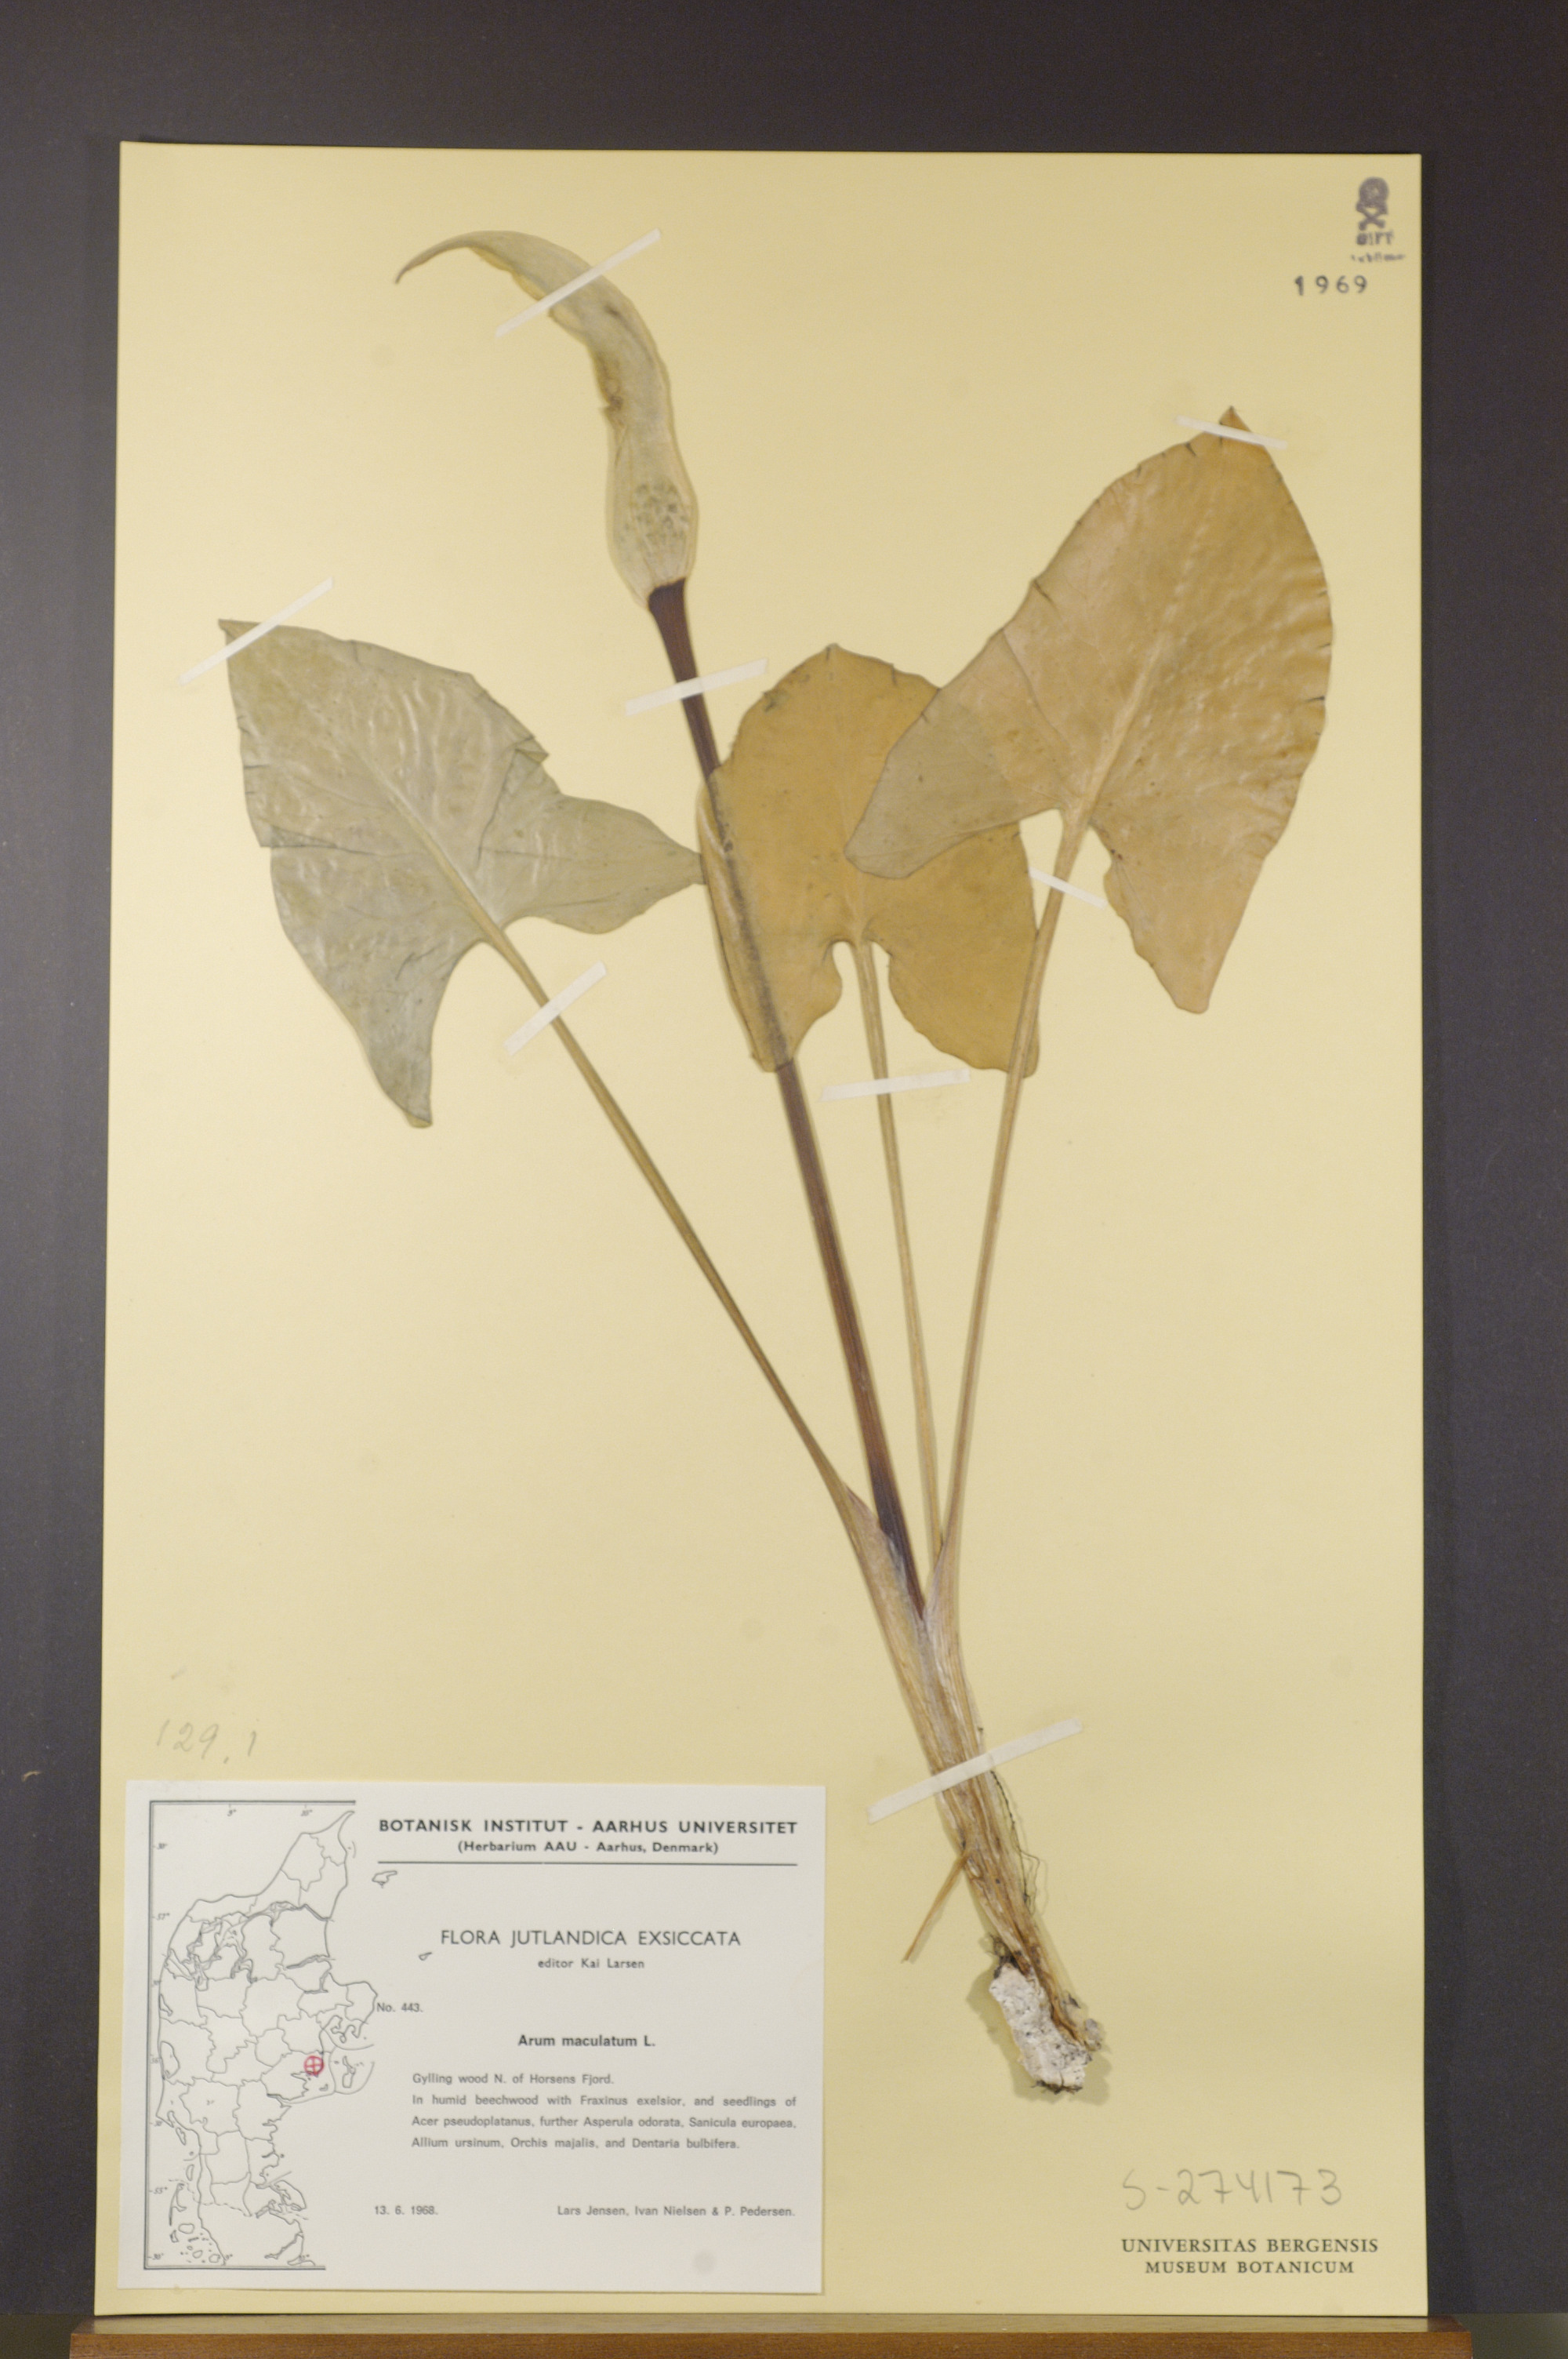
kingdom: Plantae
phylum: Tracheophyta
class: Liliopsida
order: Alismatales
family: Araceae
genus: Arum
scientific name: Arum maculatum
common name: Lords-and-ladies
